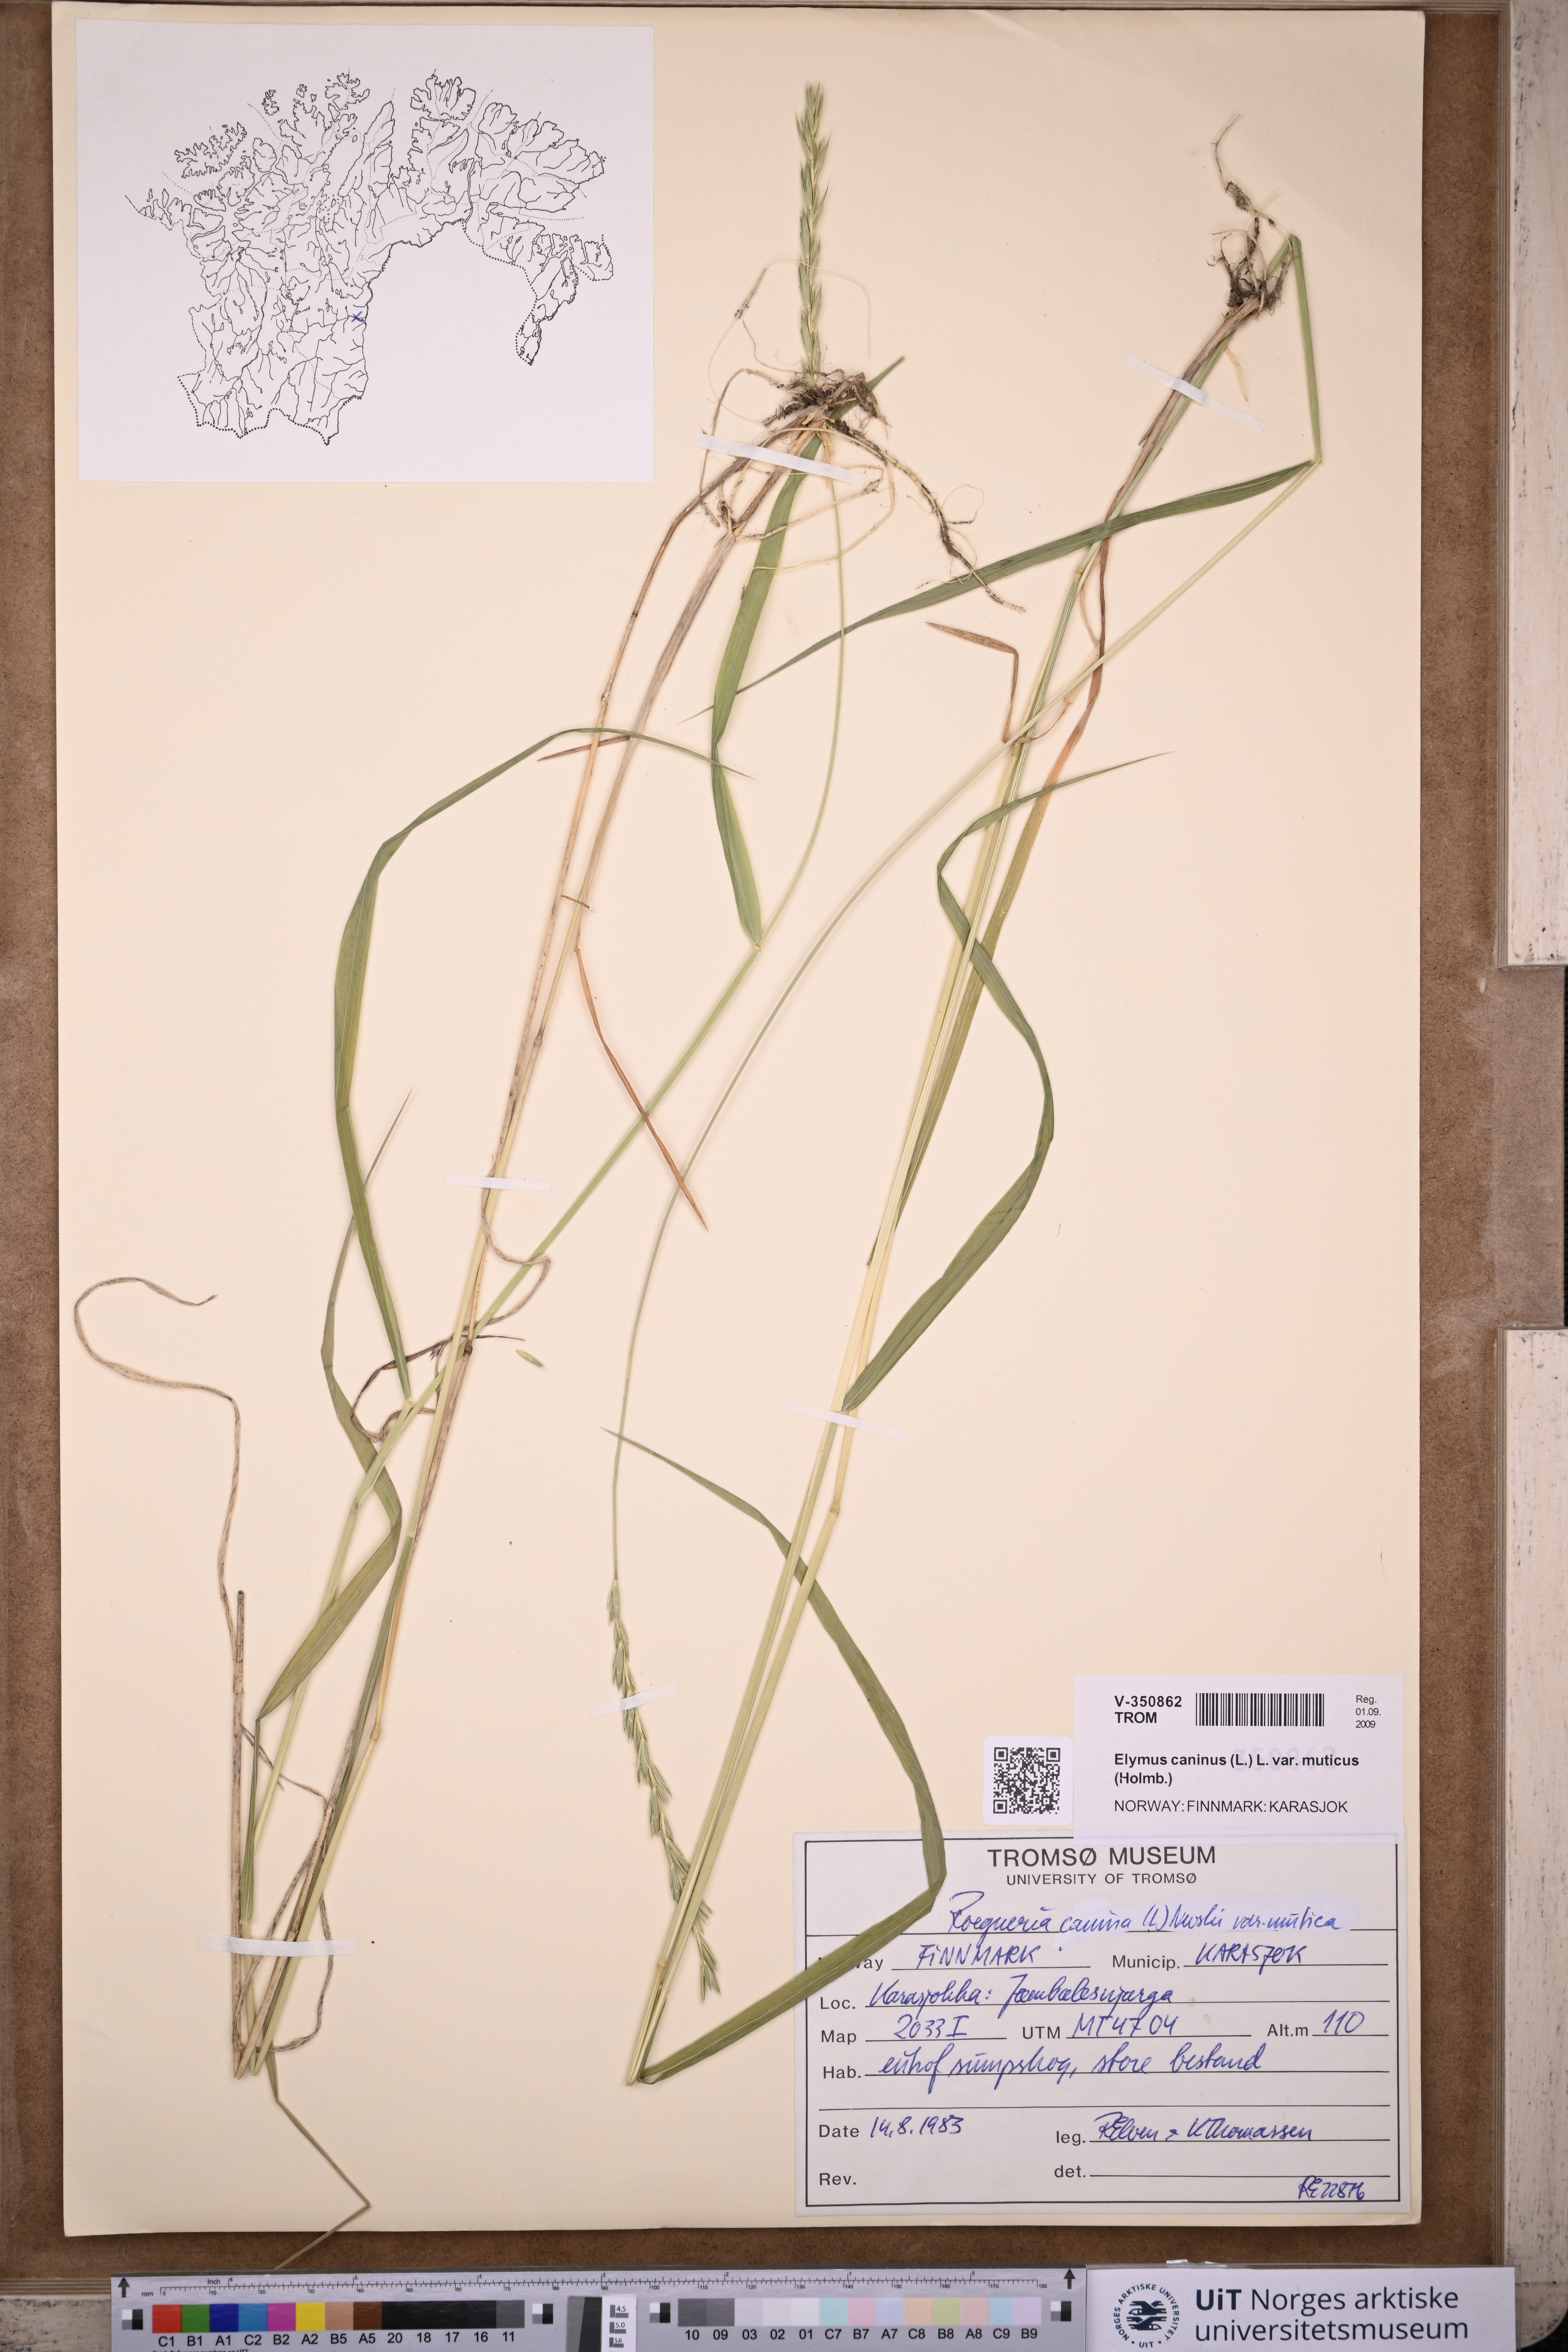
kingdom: Plantae
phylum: Tracheophyta
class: Liliopsida
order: Poales
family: Poaceae
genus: Elymus
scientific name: Elymus caninus
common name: Bearded couch
